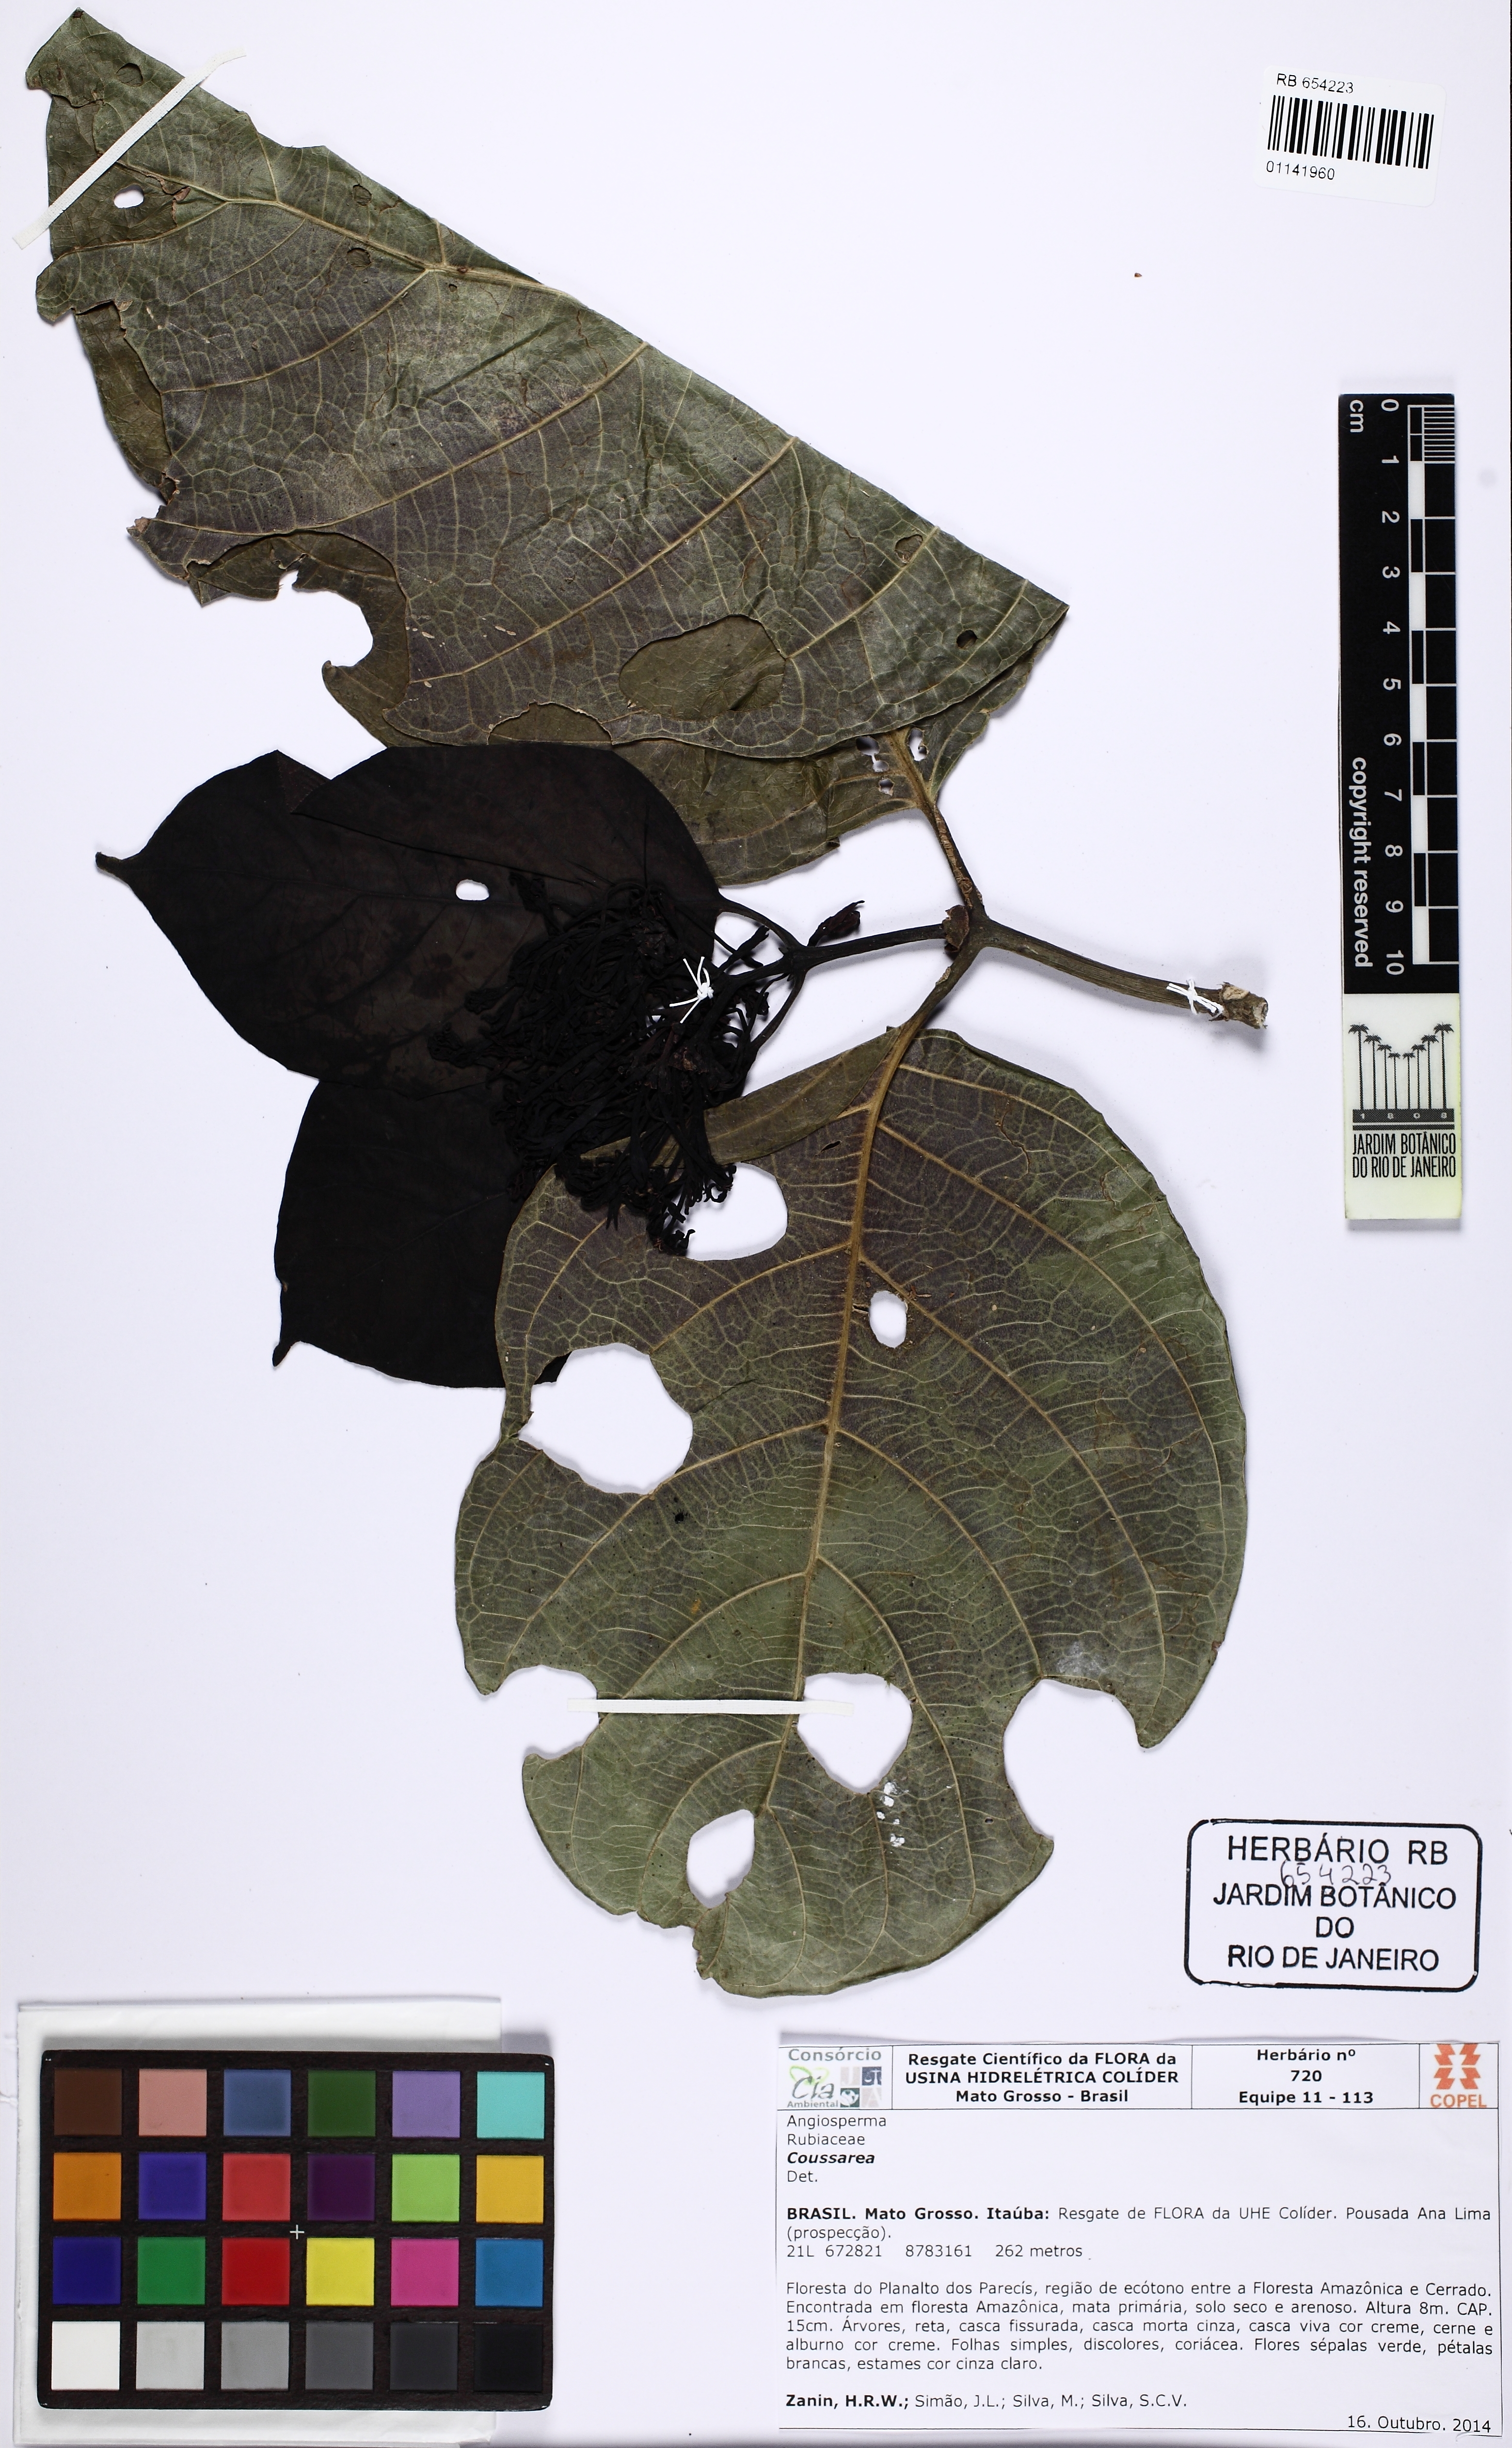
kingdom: Plantae
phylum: Tracheophyta
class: Magnoliopsida
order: Gentianales
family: Rubiaceae
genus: Coussarea
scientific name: Coussarea platyphylla
